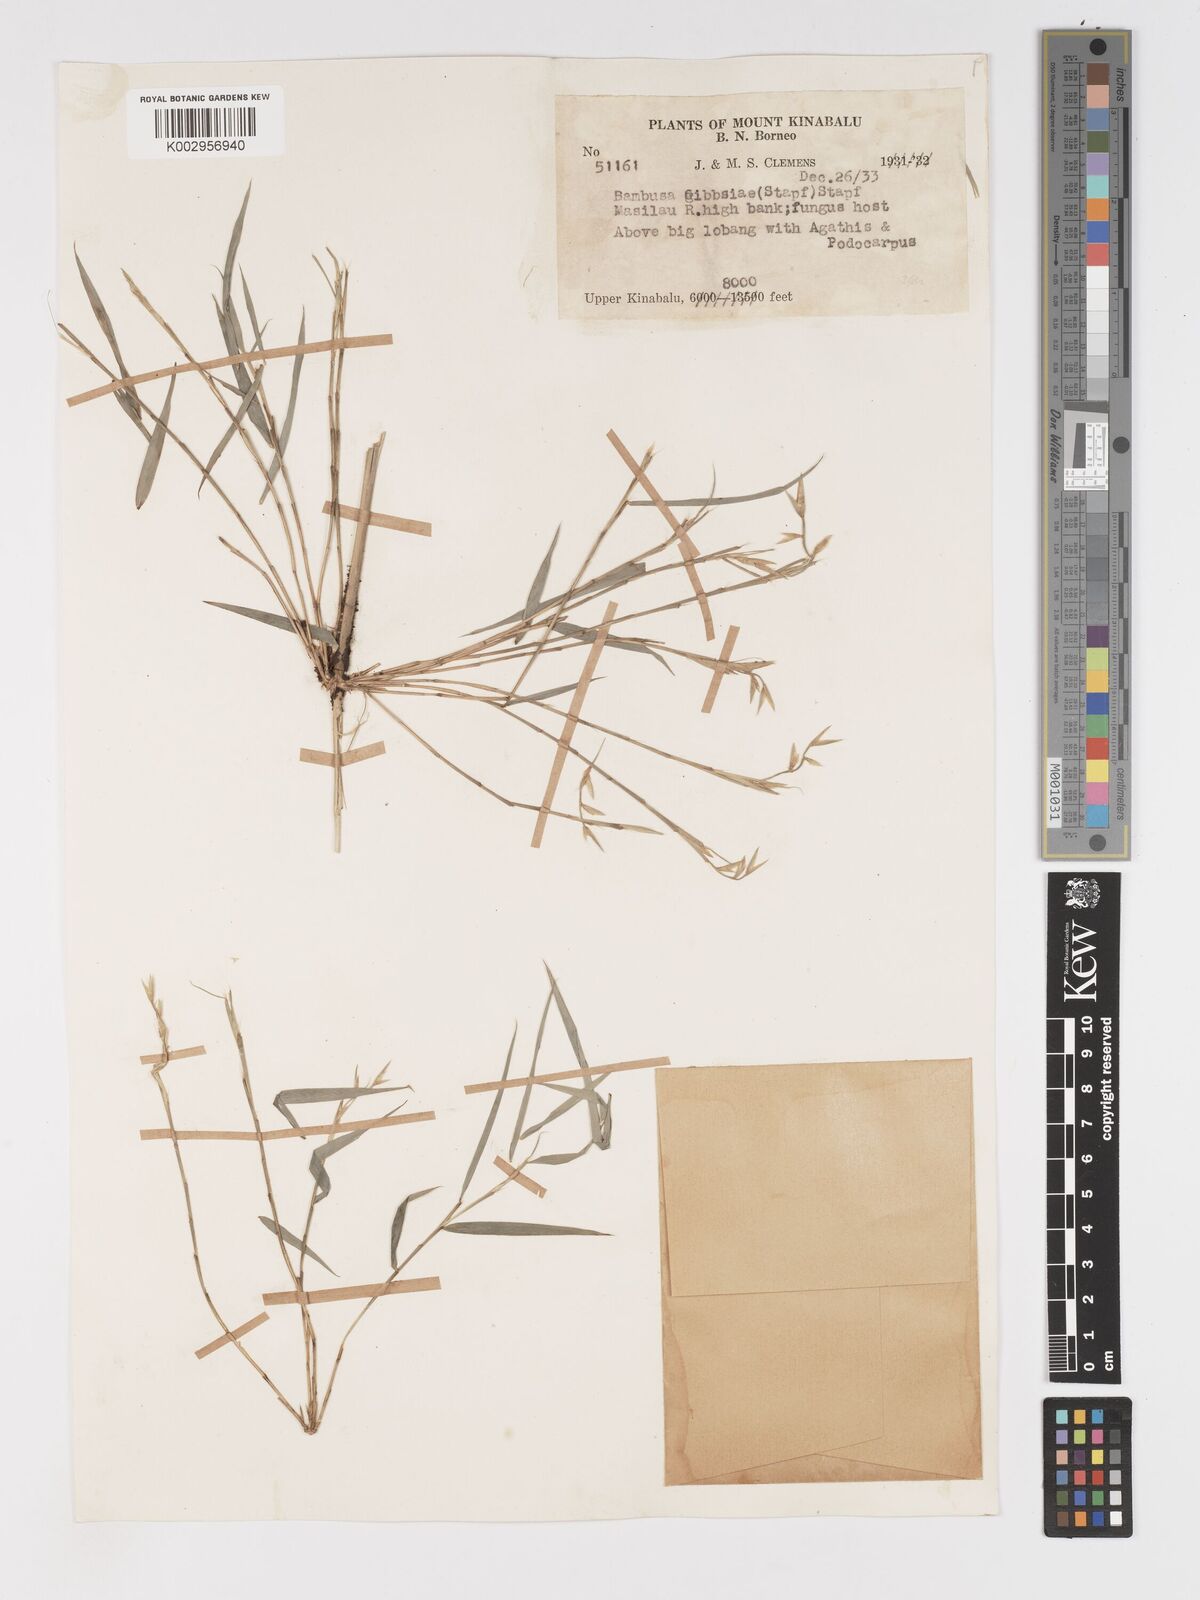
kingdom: Plantae
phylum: Tracheophyta
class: Liliopsida
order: Poales
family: Poaceae
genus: Racemobambos
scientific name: Racemobambos gibbsiae
